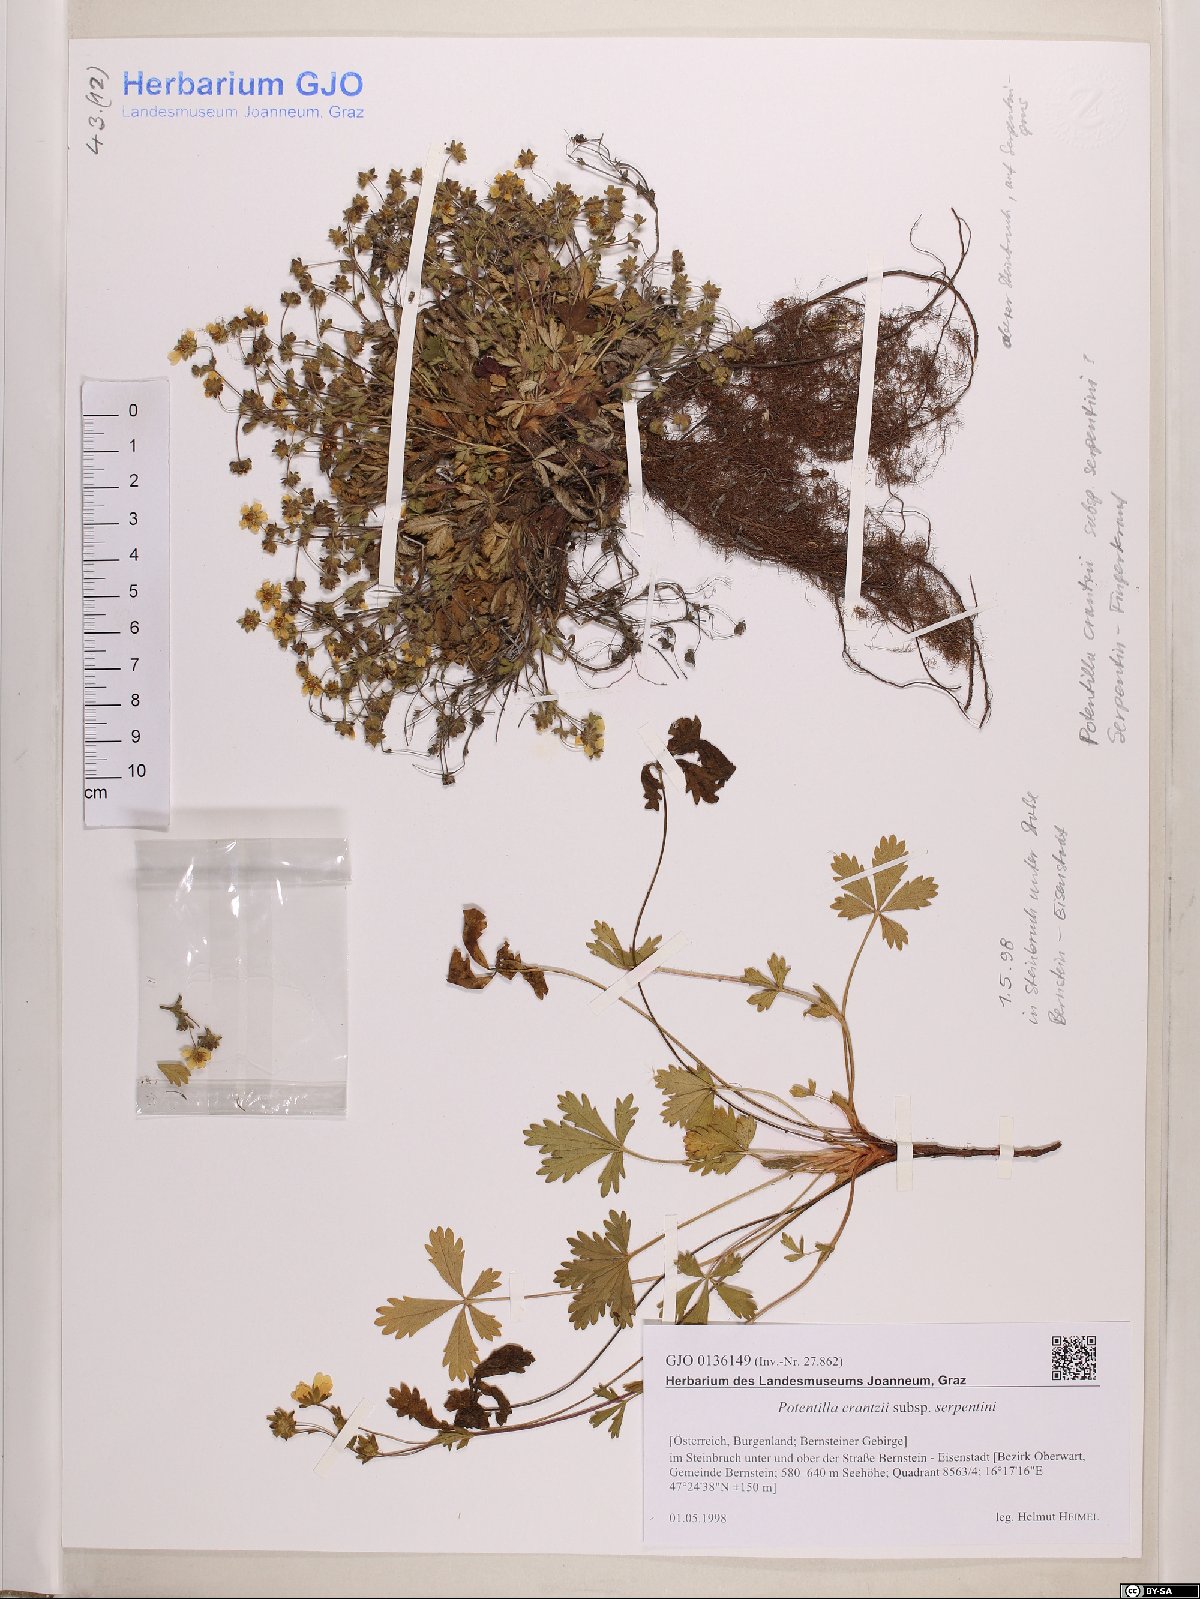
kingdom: Plantae
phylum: Tracheophyta
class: Magnoliopsida
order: Rosales
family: Rosaceae
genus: Potentilla
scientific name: Potentilla crantzii
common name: Alpine cinquefoil
